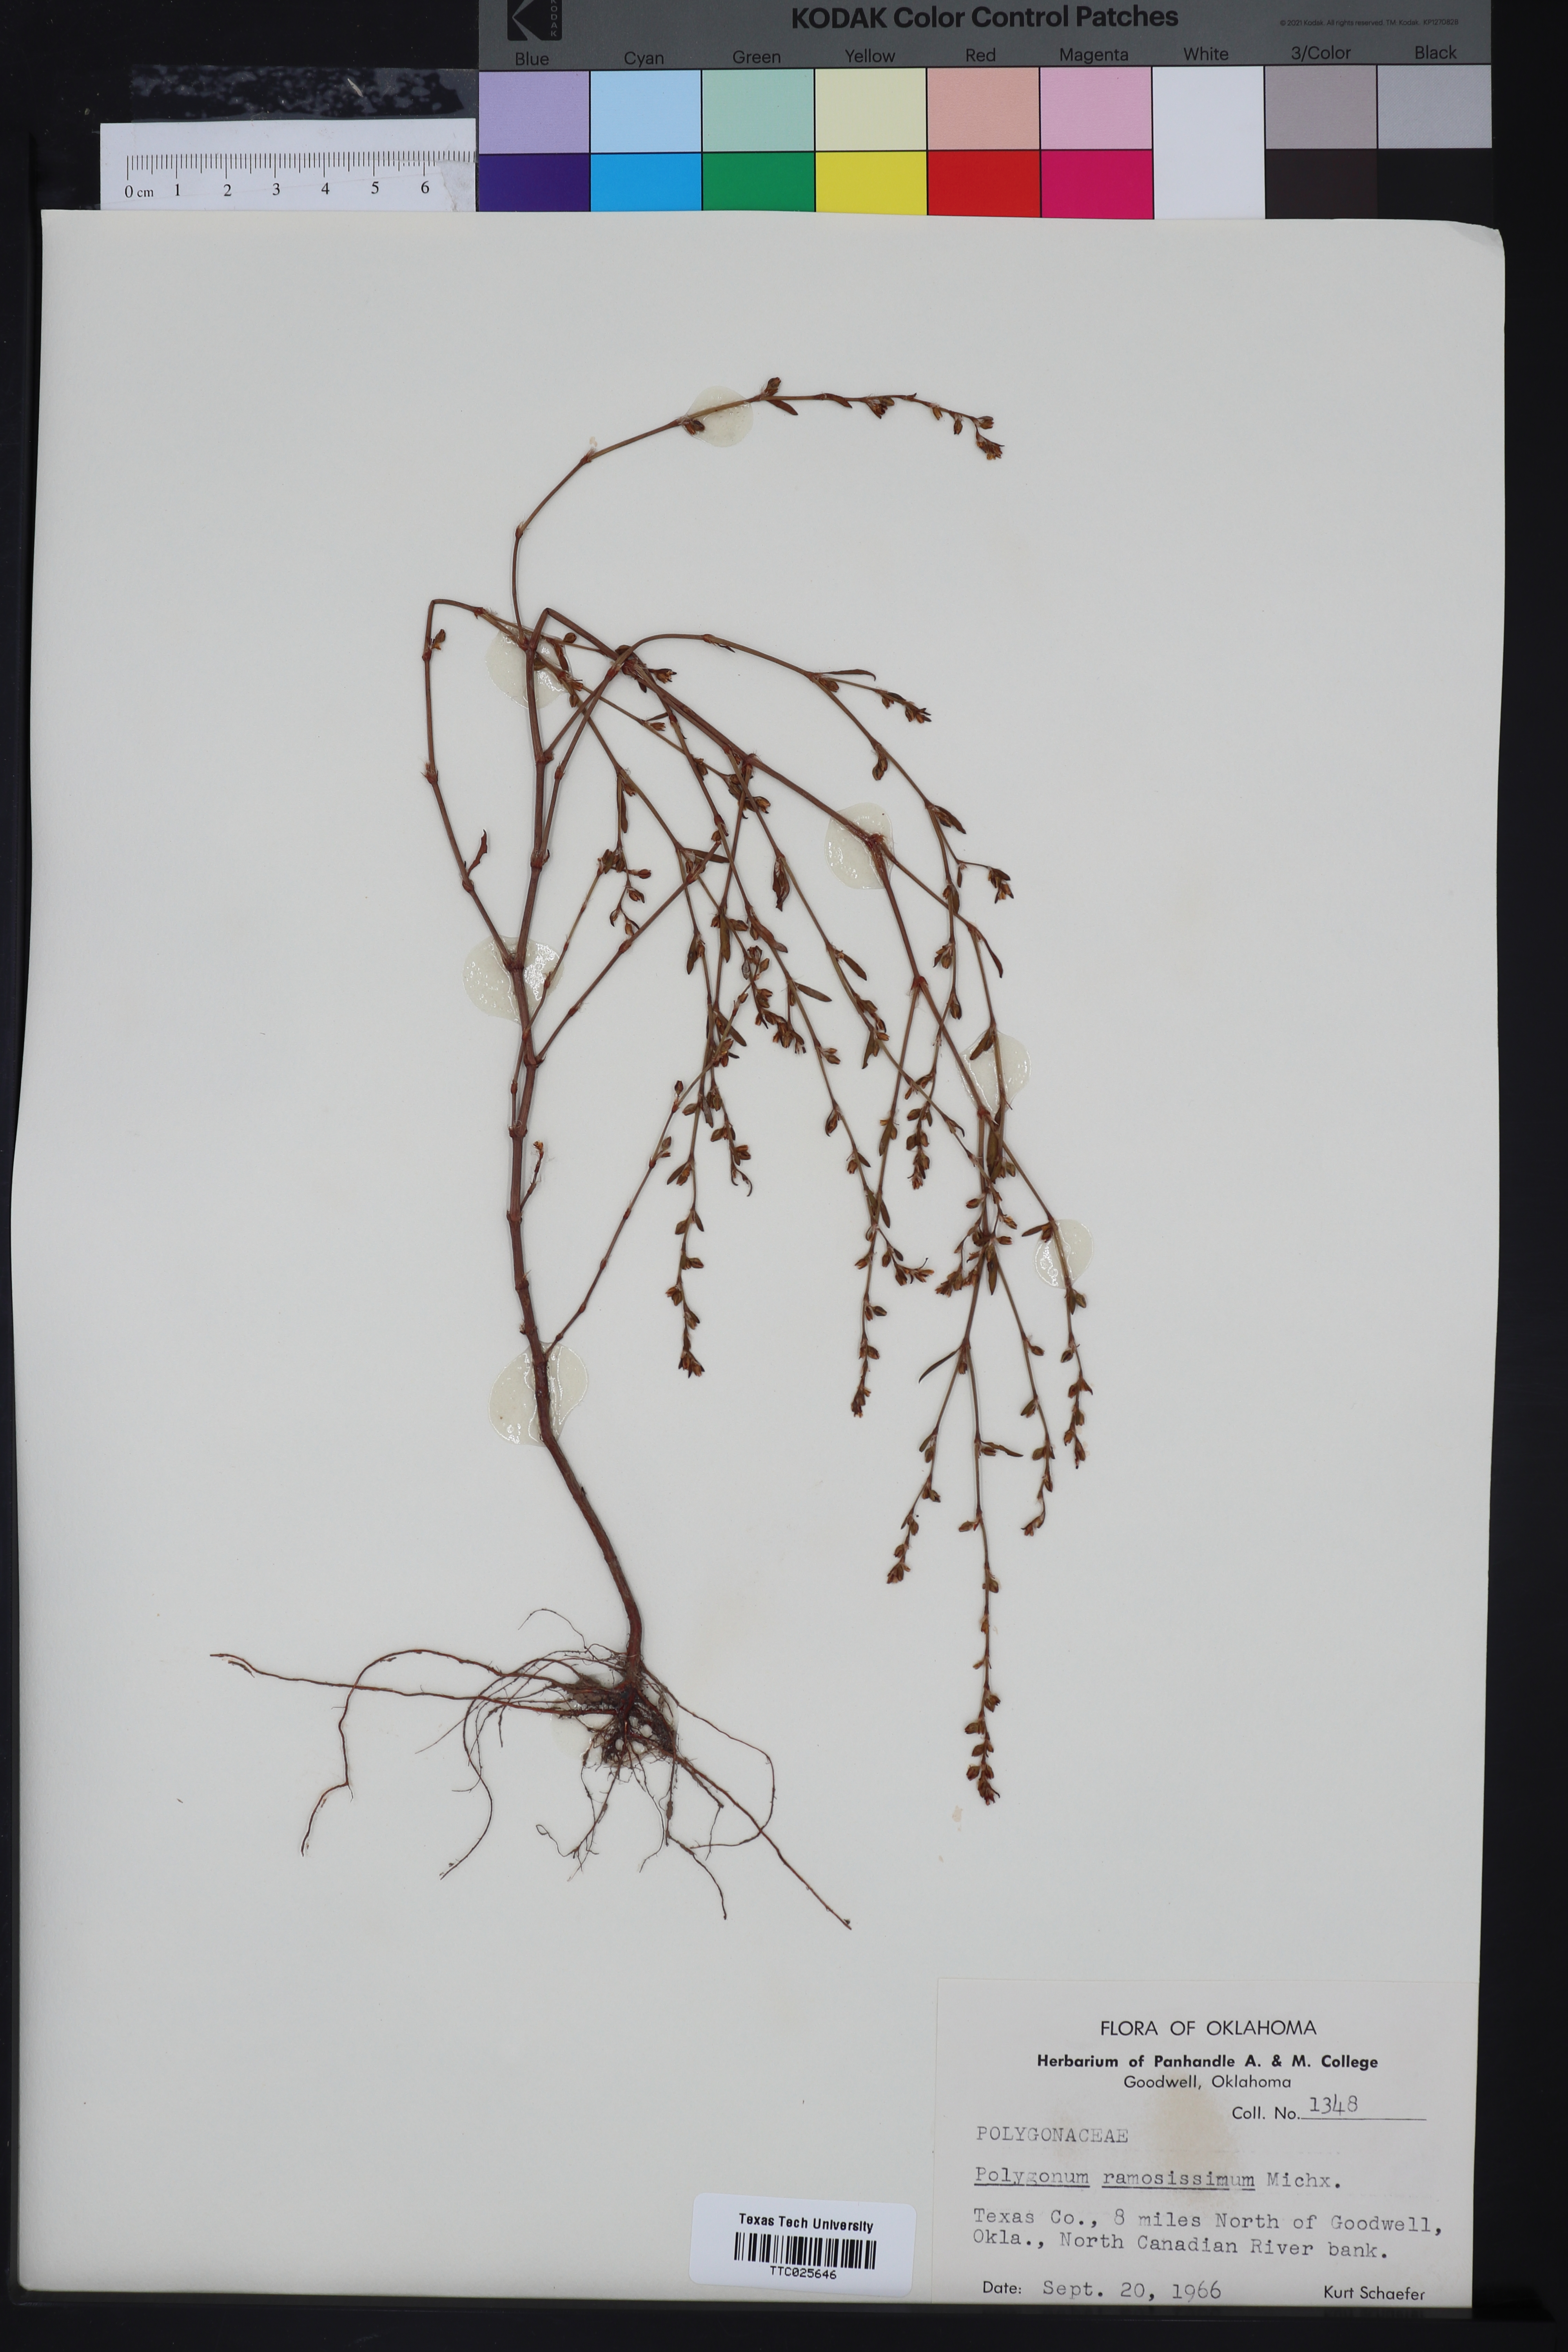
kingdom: Plantae
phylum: Tracheophyta
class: Magnoliopsida
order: Caryophyllales
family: Polygonaceae
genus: Polygonum
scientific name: Polygonum ramosissimum
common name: Bushy knotweed
